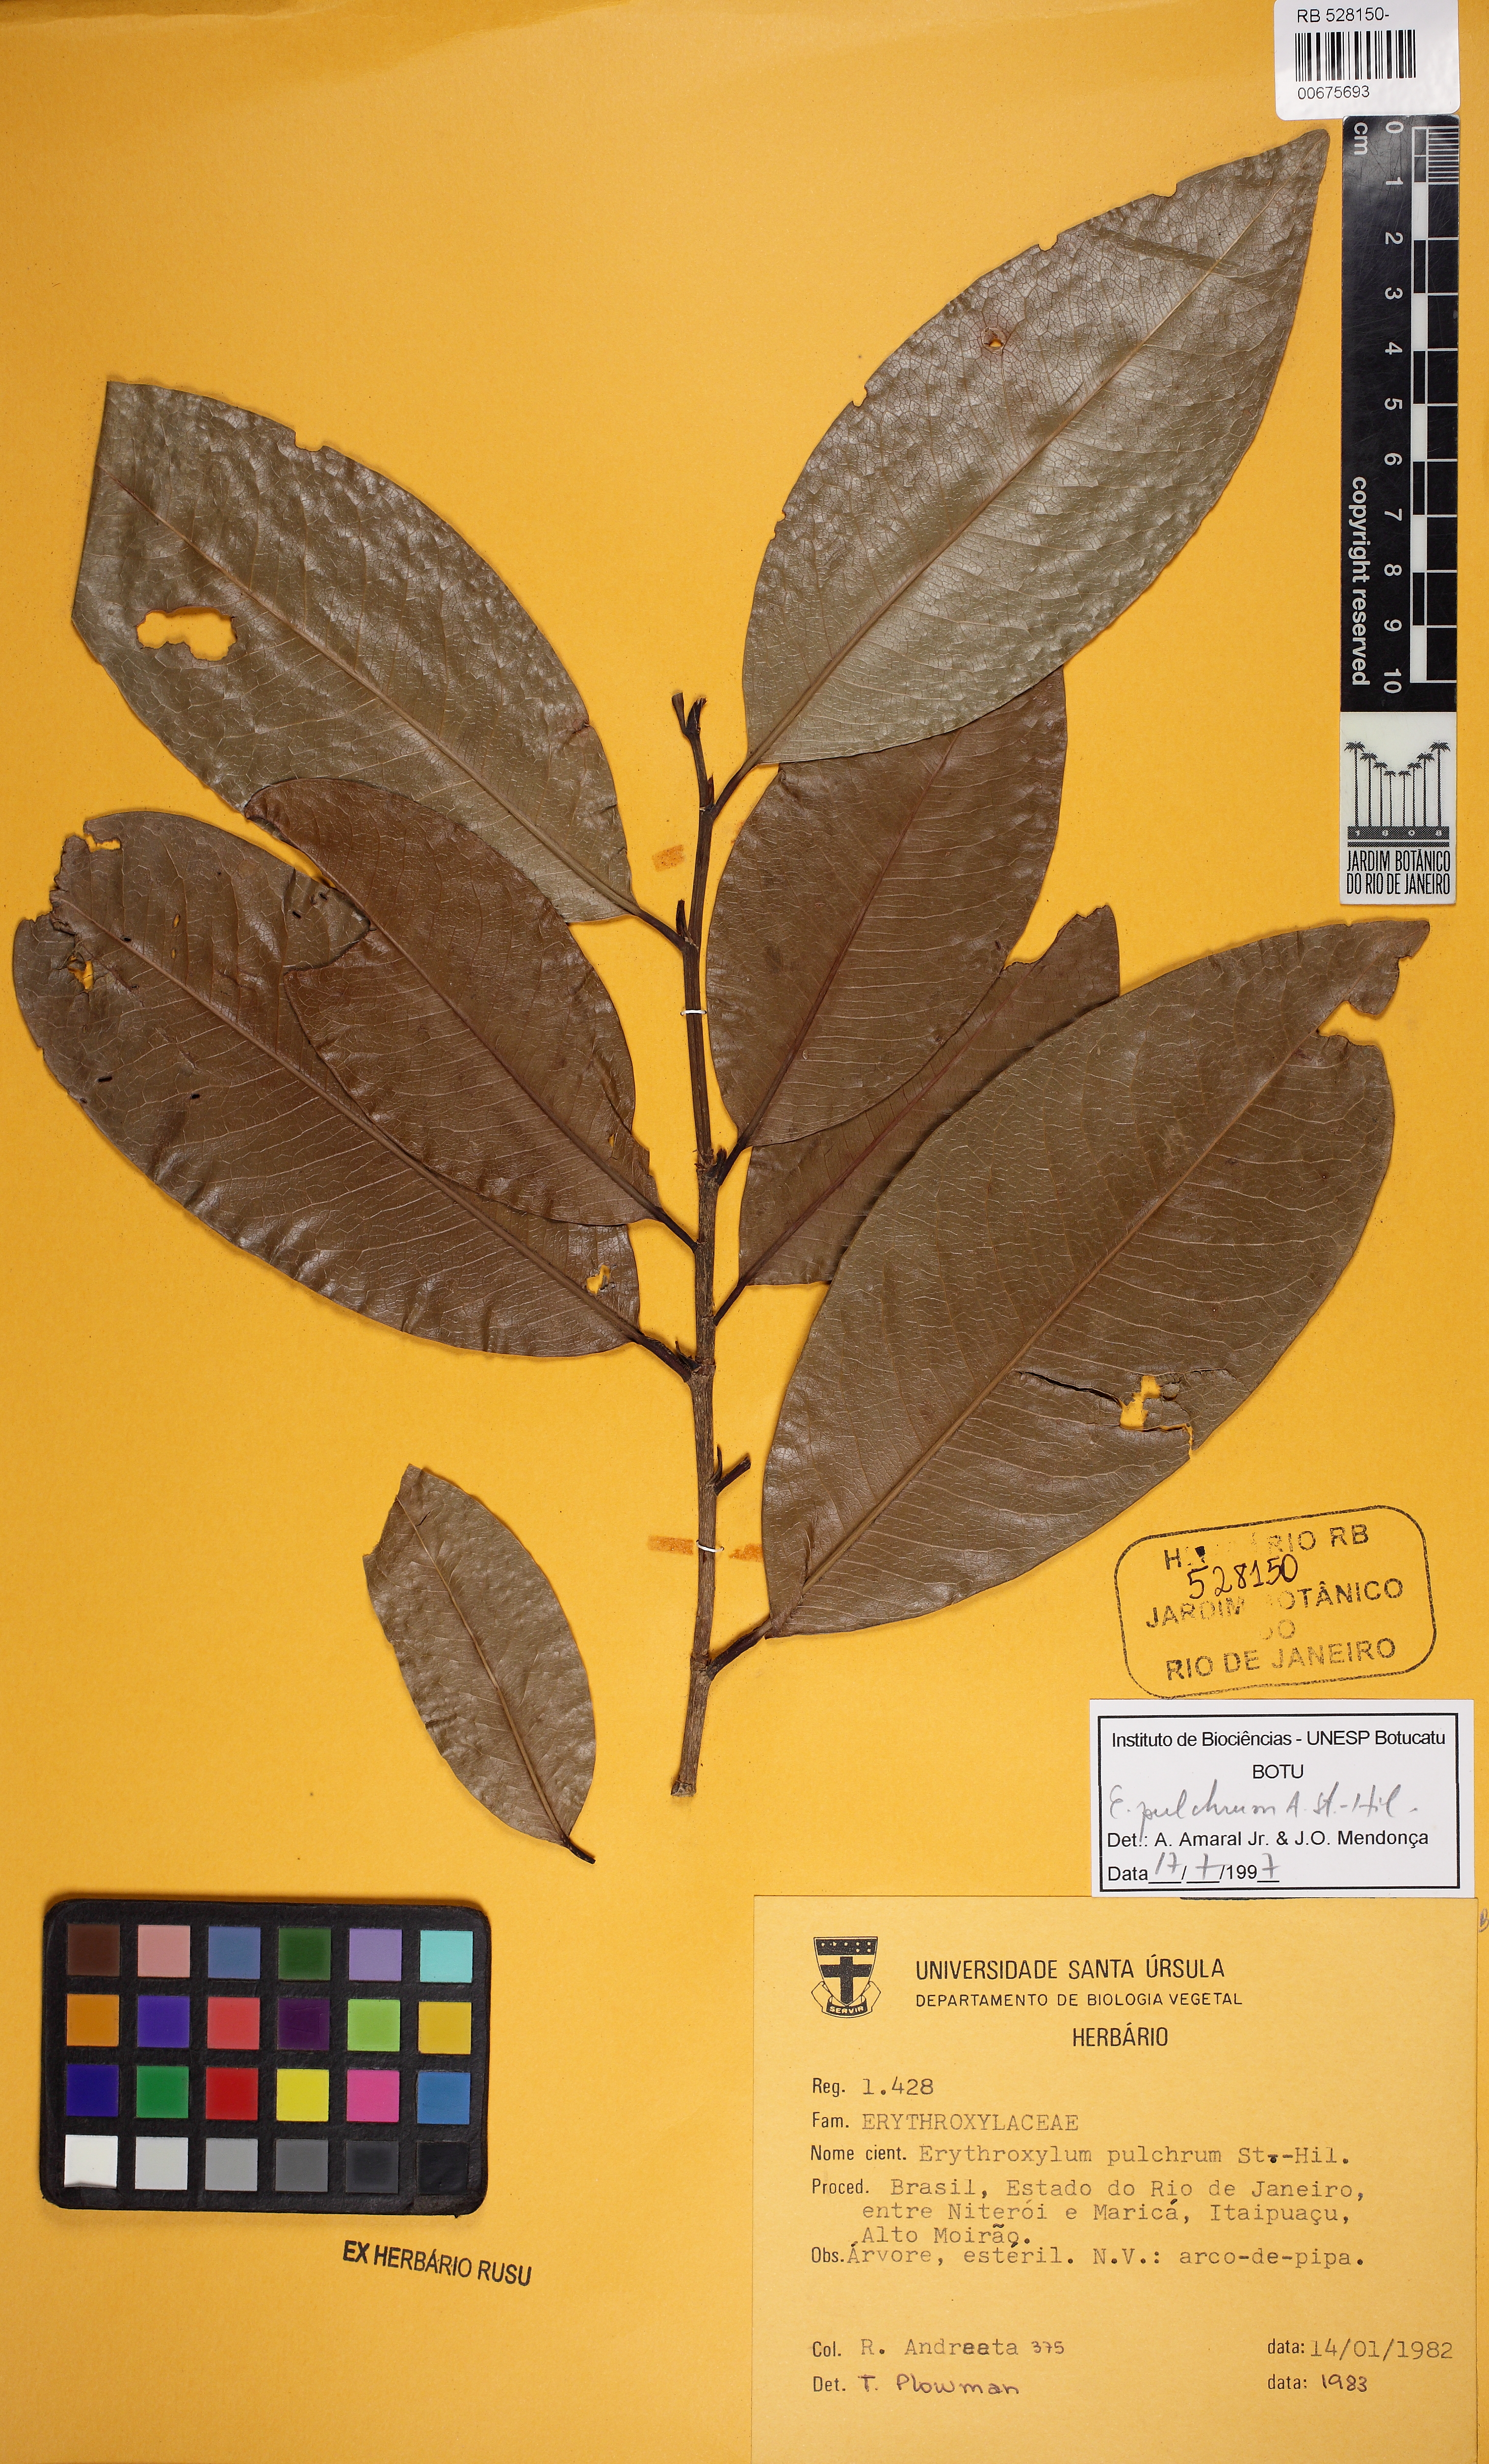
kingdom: Plantae
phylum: Tracheophyta
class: Magnoliopsida
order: Malpighiales
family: Erythroxylaceae
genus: Erythroxylum
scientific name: Erythroxylum pulchrum
